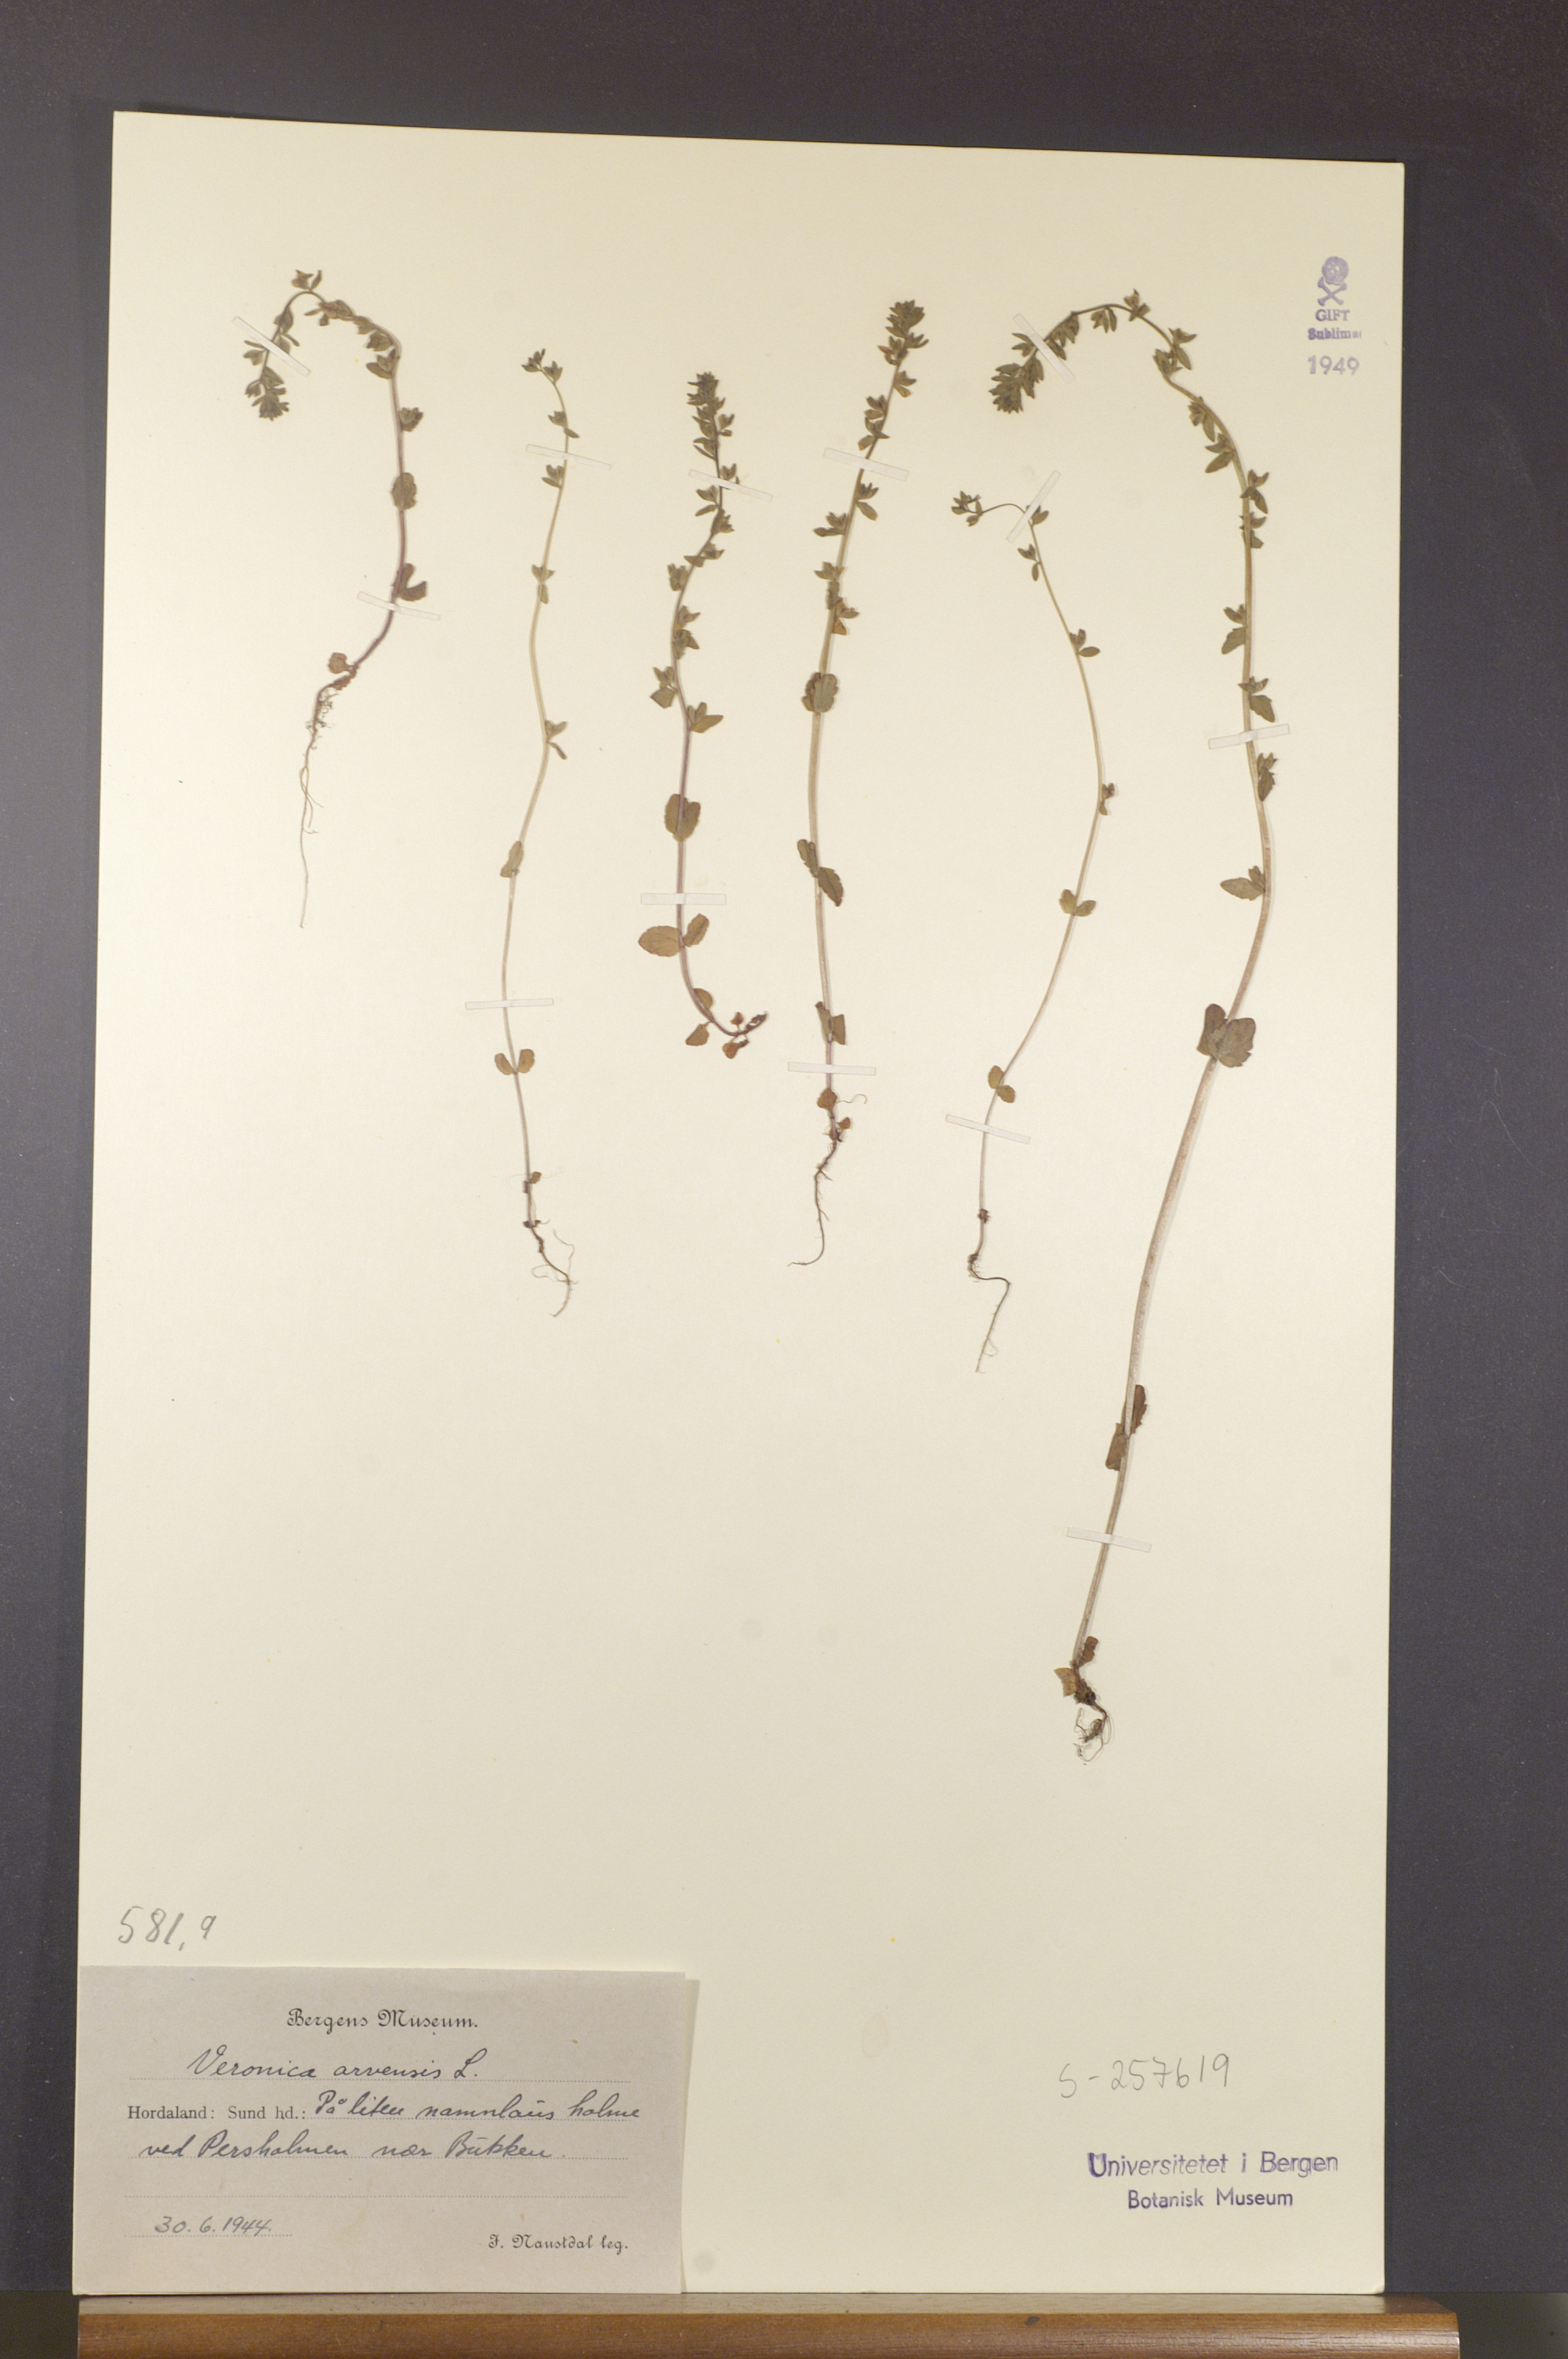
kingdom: Plantae
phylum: Tracheophyta
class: Magnoliopsida
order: Lamiales
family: Plantaginaceae
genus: Veronica
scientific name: Veronica arvensis
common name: Corn speedwell
